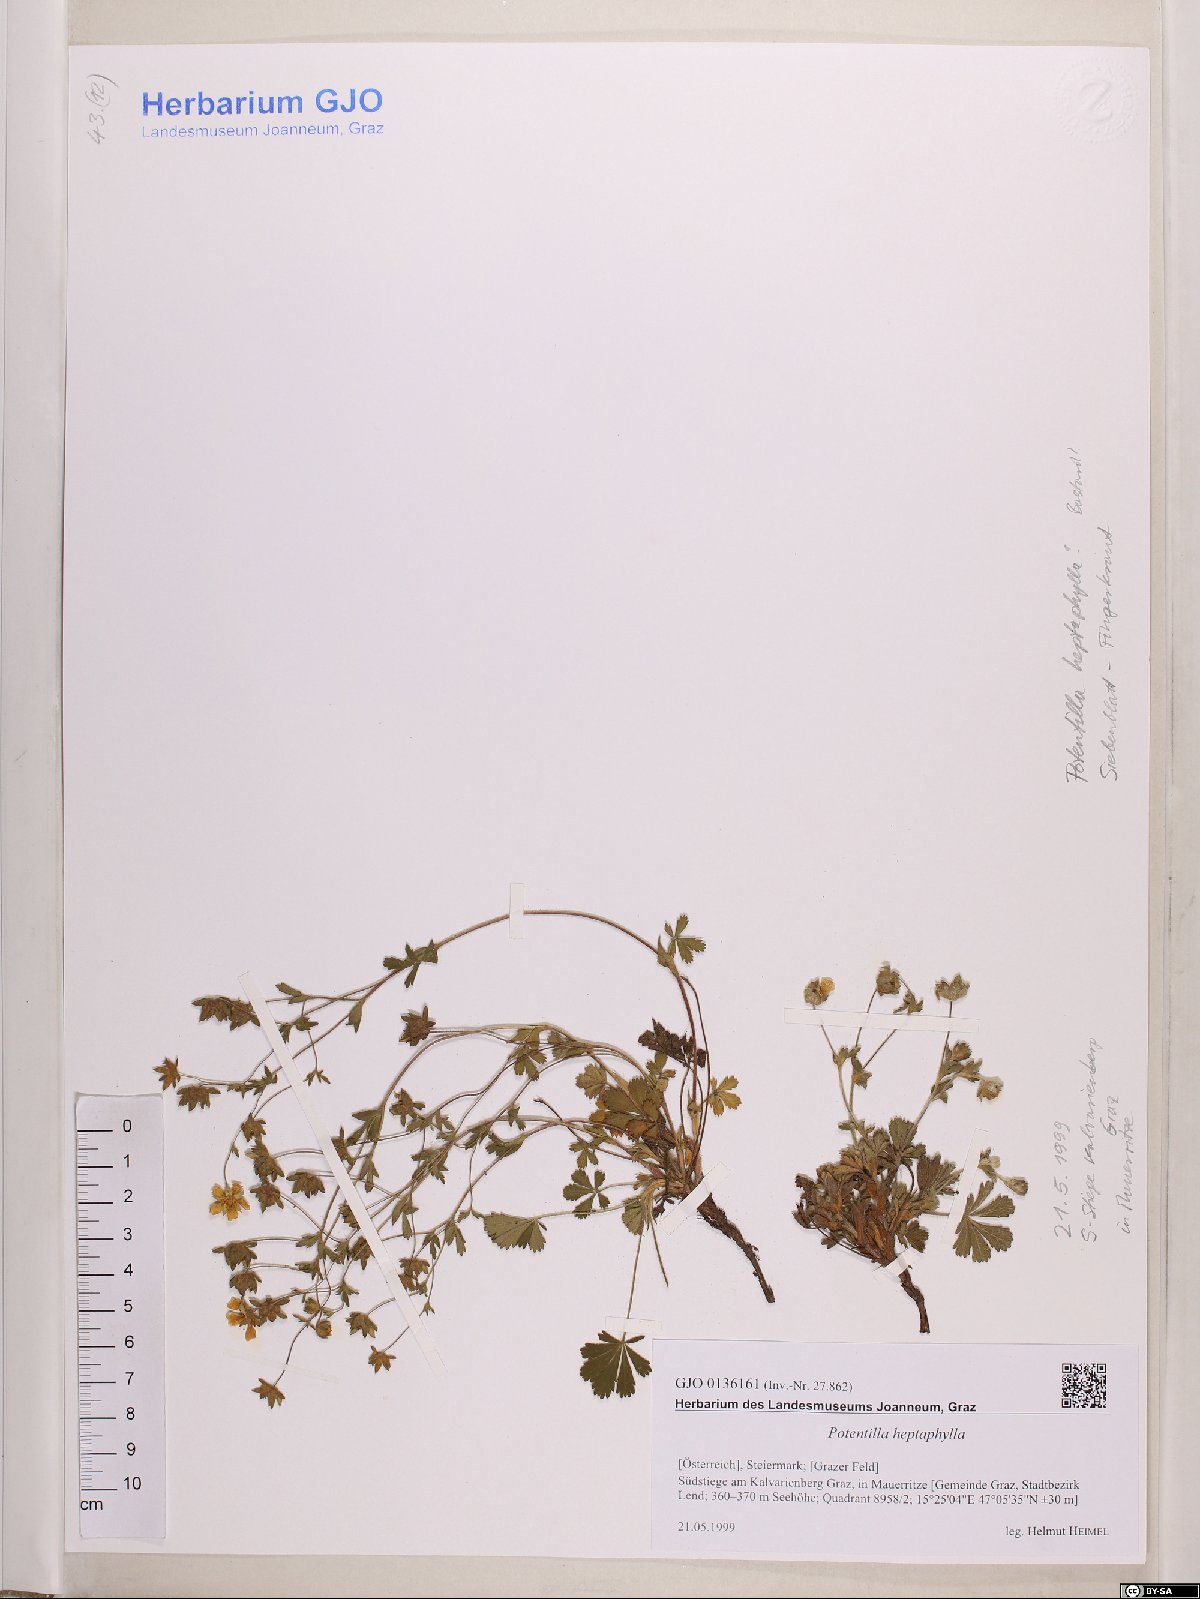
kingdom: Plantae
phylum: Tracheophyta
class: Magnoliopsida
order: Rosales
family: Rosaceae
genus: Potentilla
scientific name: Potentilla heptaphylla
